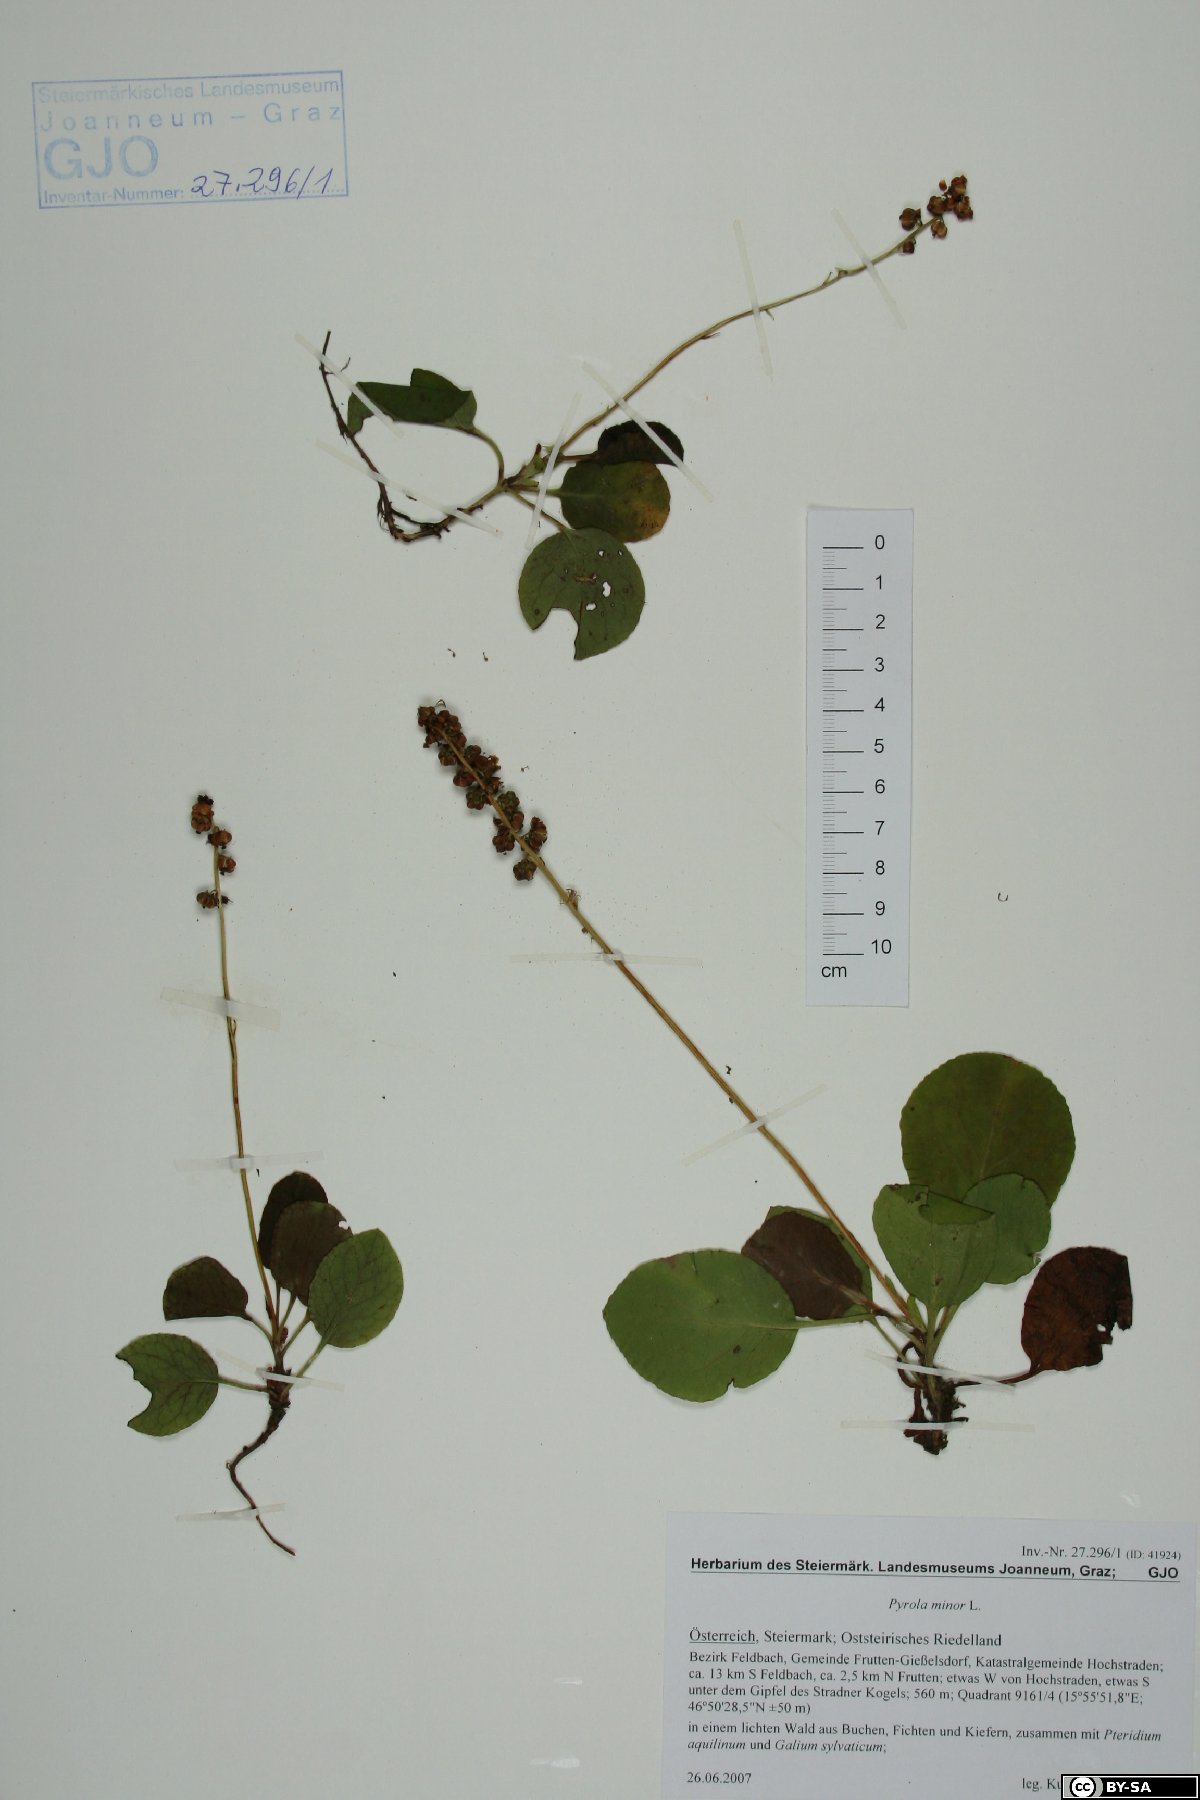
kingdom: Fungi
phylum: Basidiomycota
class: Agaricomycetes
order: Atheliales
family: Atheliaceae
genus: Athelia
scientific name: Athelia epiphylla
